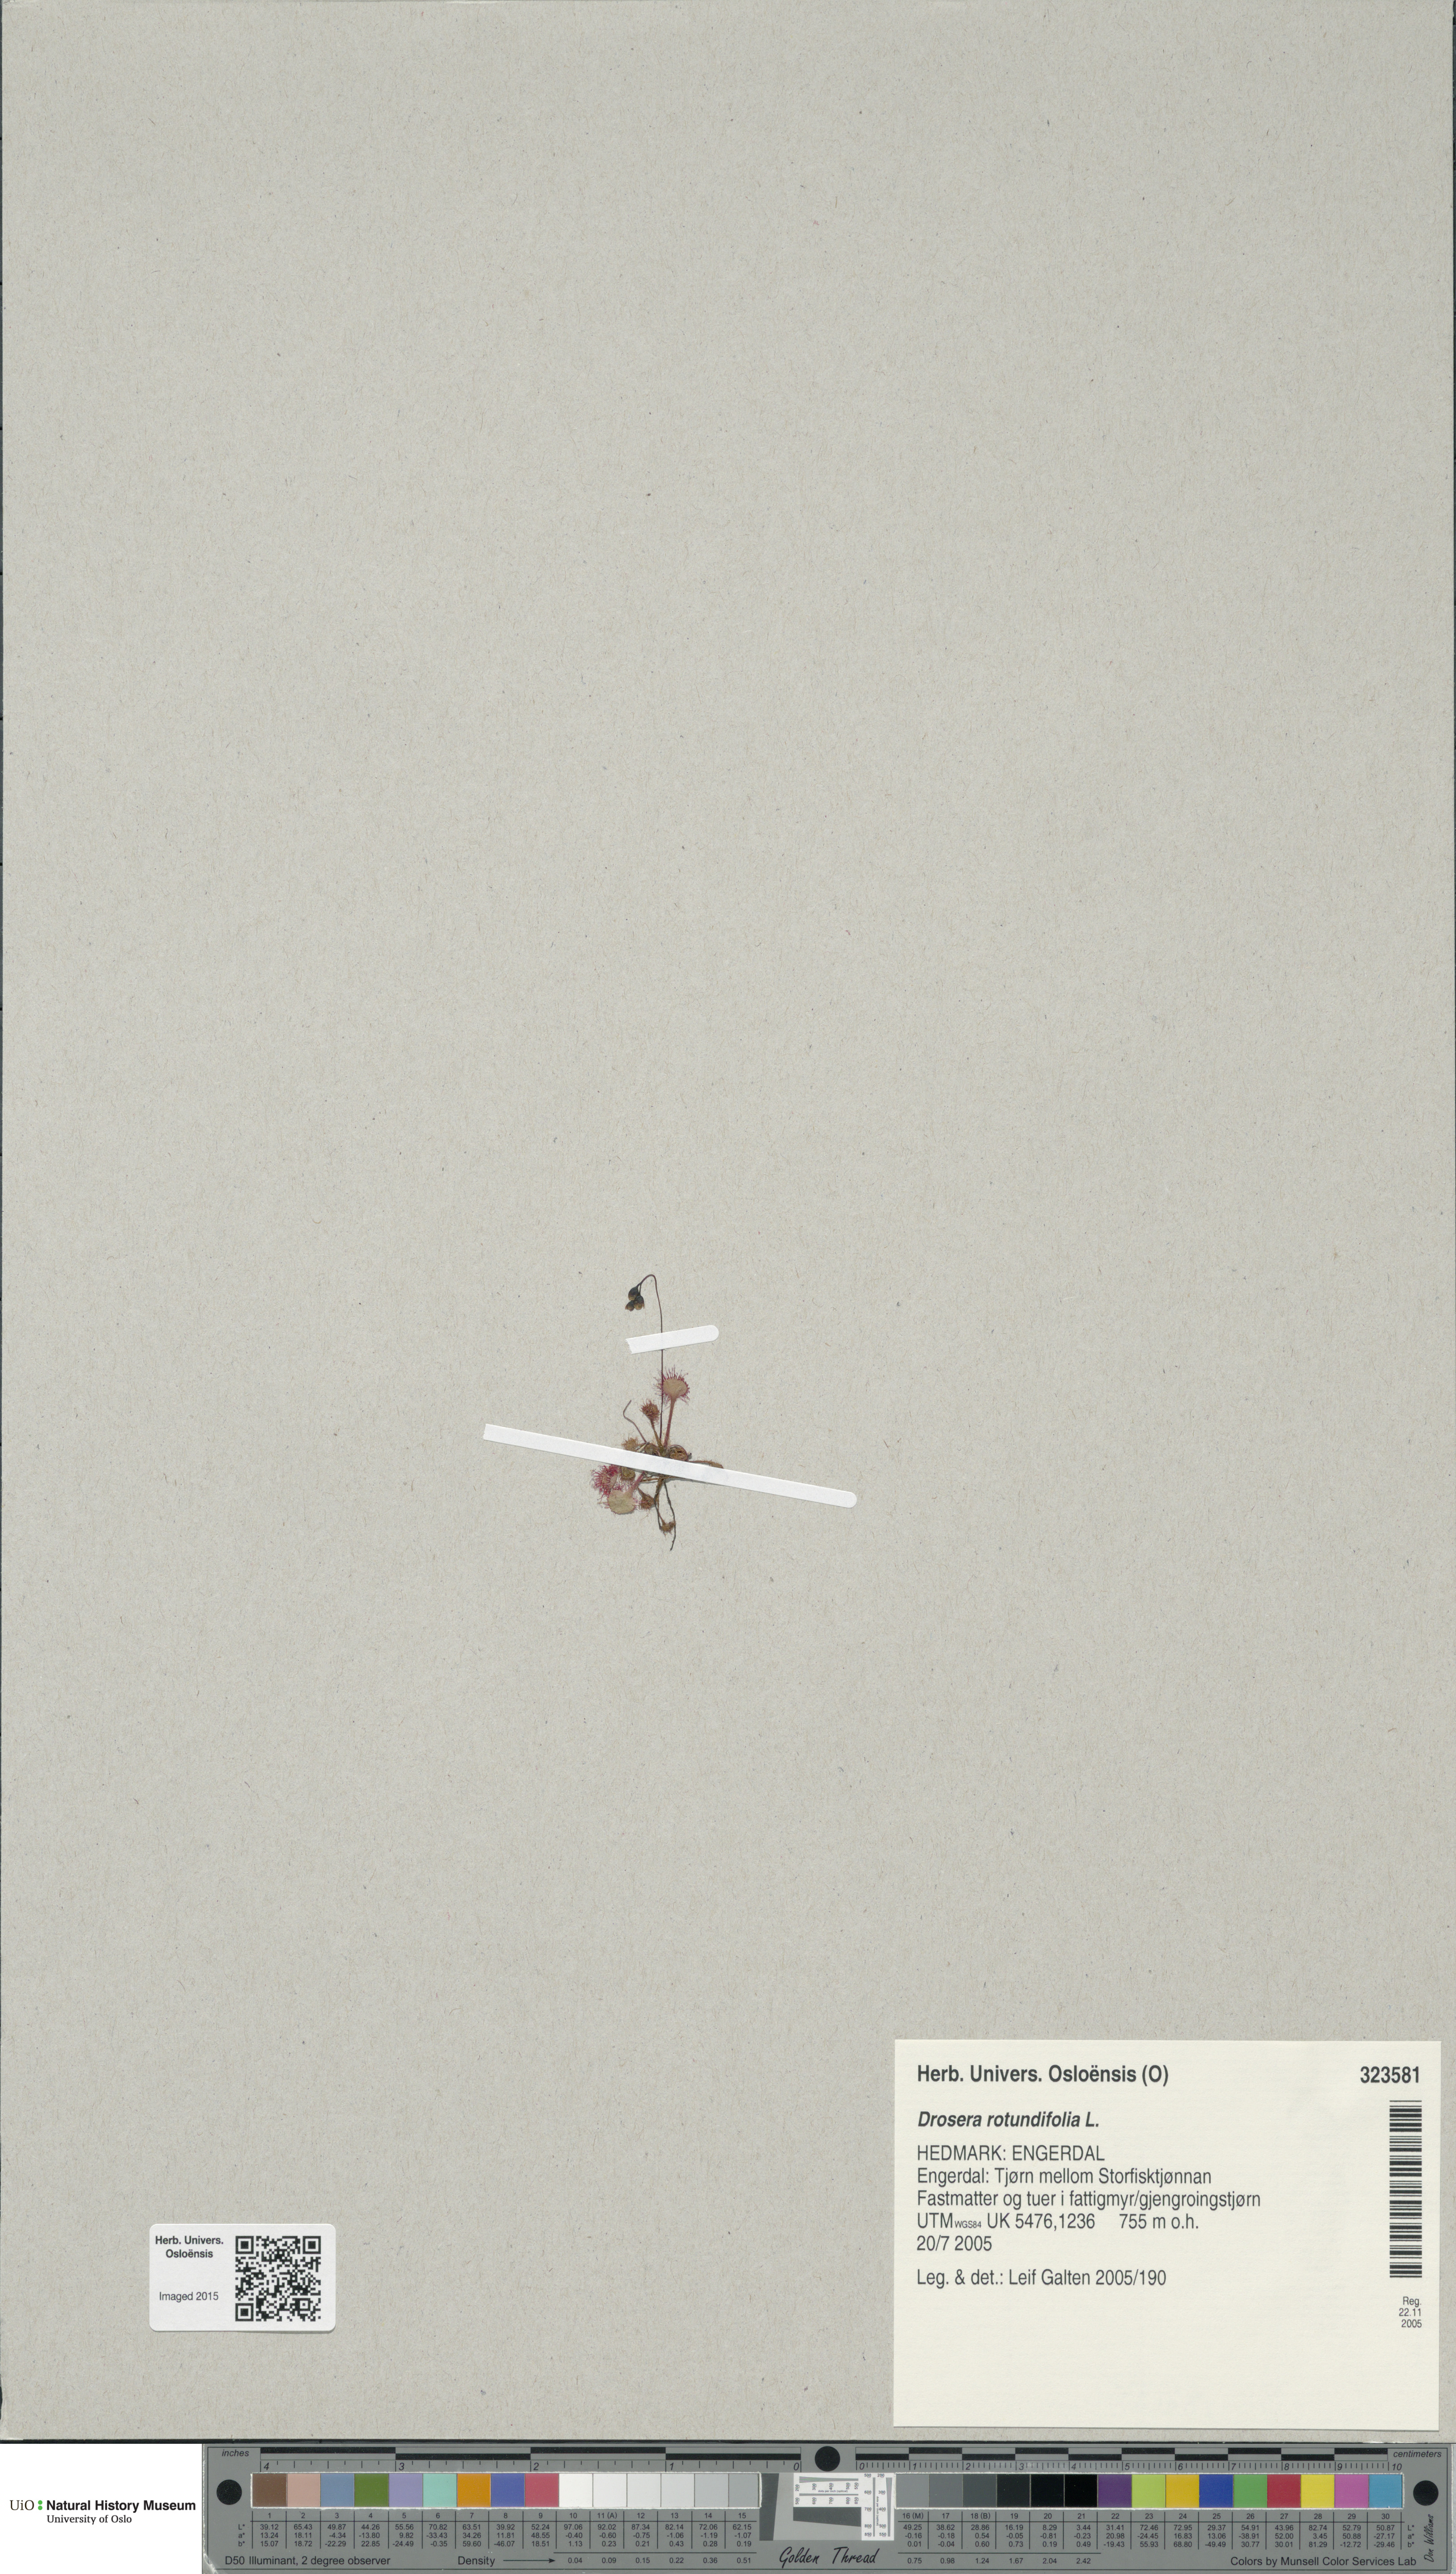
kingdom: Plantae
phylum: Tracheophyta
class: Magnoliopsida
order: Caryophyllales
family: Droseraceae
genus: Drosera
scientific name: Drosera rotundifolia
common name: Round-leaved sundew
